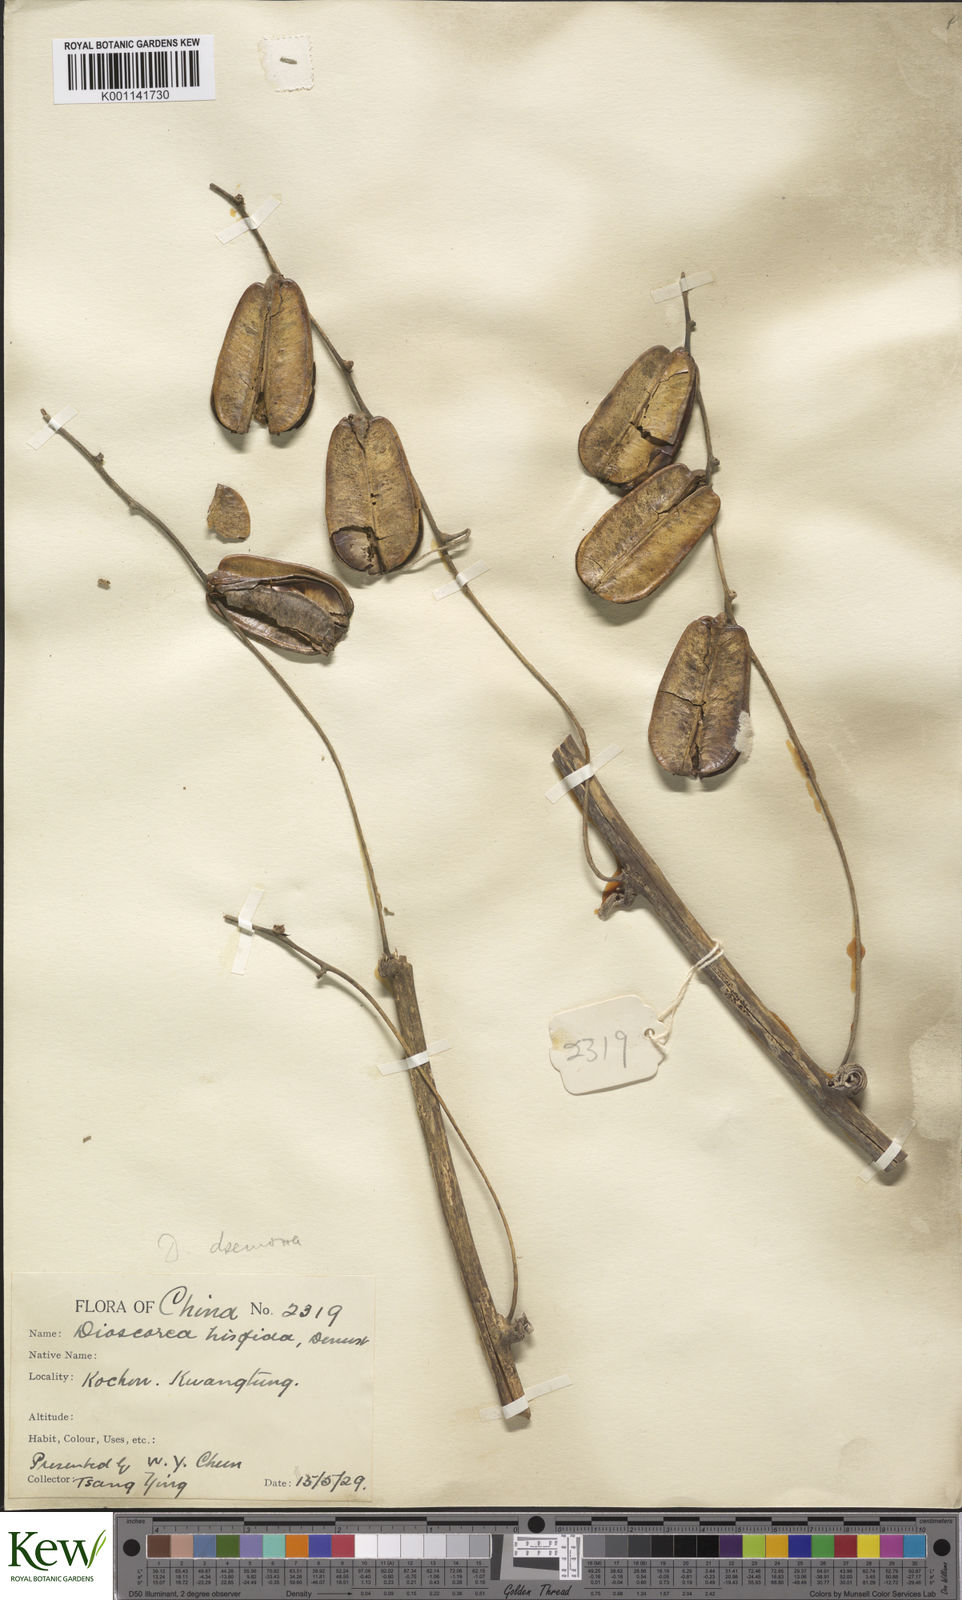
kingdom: Plantae
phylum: Tracheophyta
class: Liliopsida
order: Dioscoreales
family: Dioscoreaceae
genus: Dioscorea
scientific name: Dioscorea hispida
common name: Asiatic bitter yam
